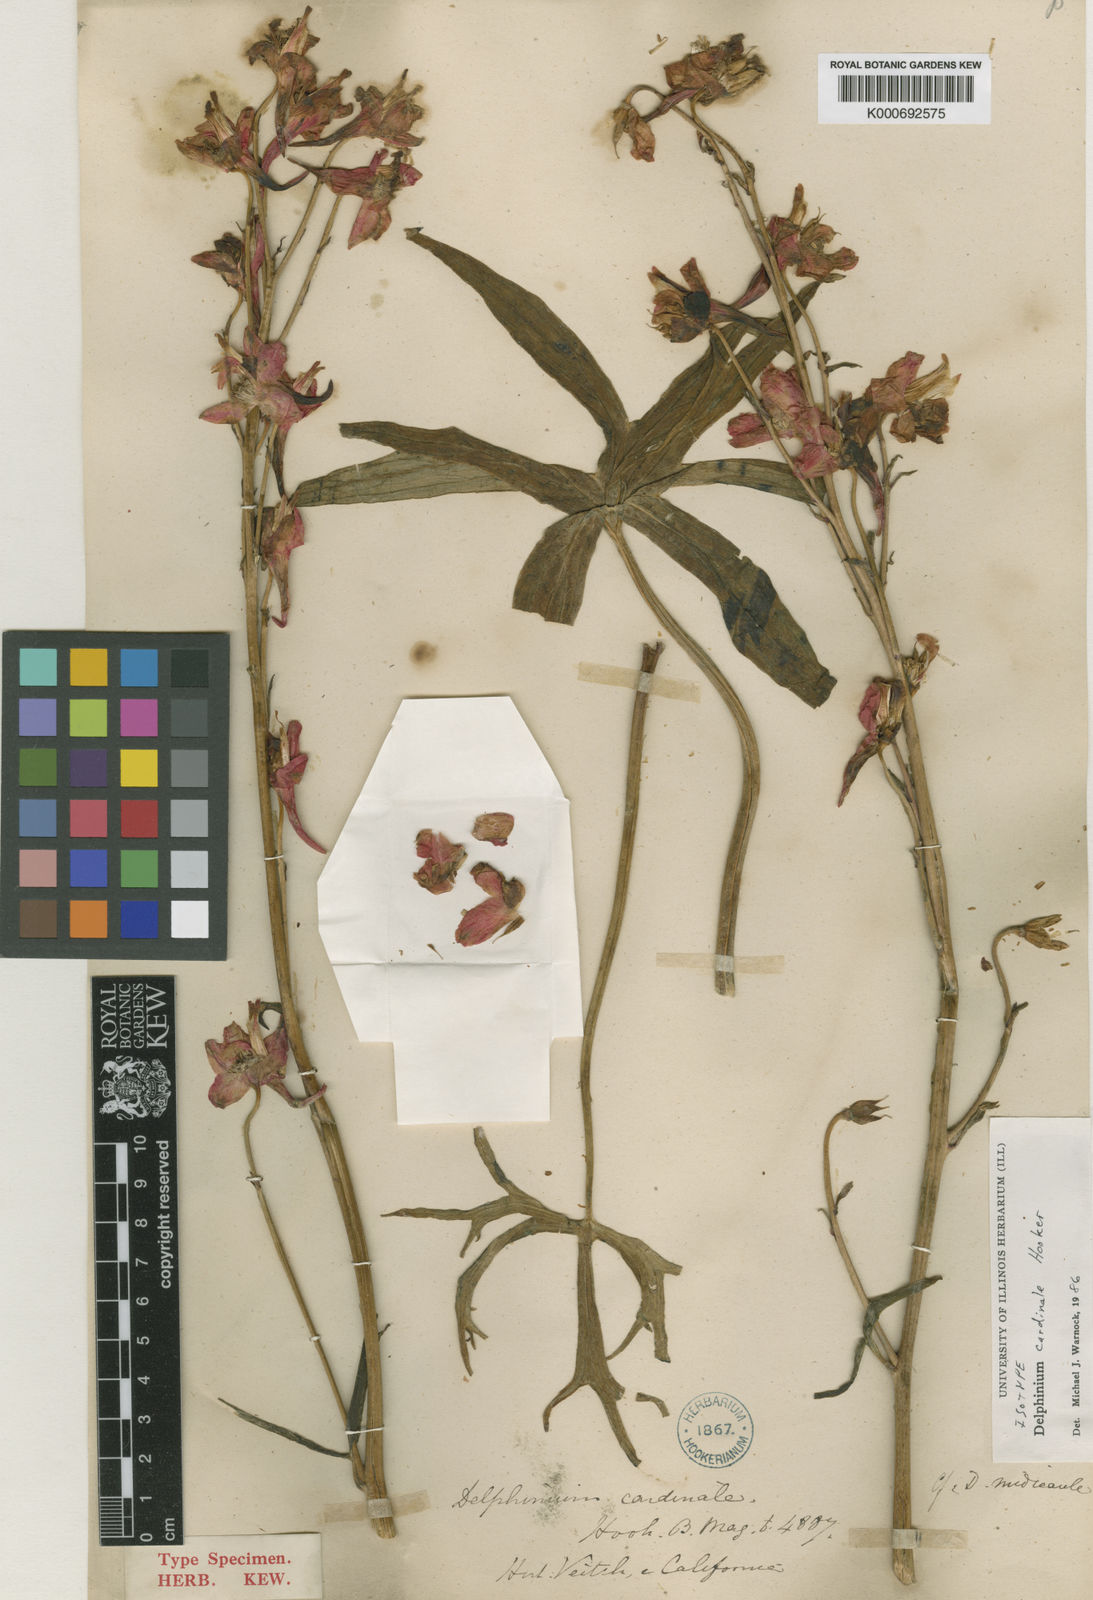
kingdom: Plantae
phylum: Tracheophyta
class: Magnoliopsida
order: Ranunculales
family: Ranunculaceae
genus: Delphinium
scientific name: Delphinium cardinale
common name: Scarlet larkspur
